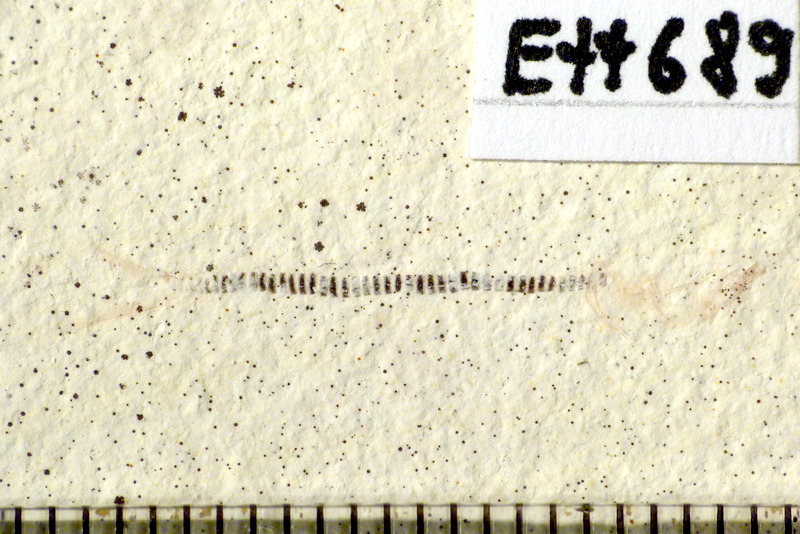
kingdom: Animalia
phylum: Chordata
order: Salmoniformes
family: Orthogonikleithridae
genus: Orthogonikleithrus
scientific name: Orthogonikleithrus hoelli
